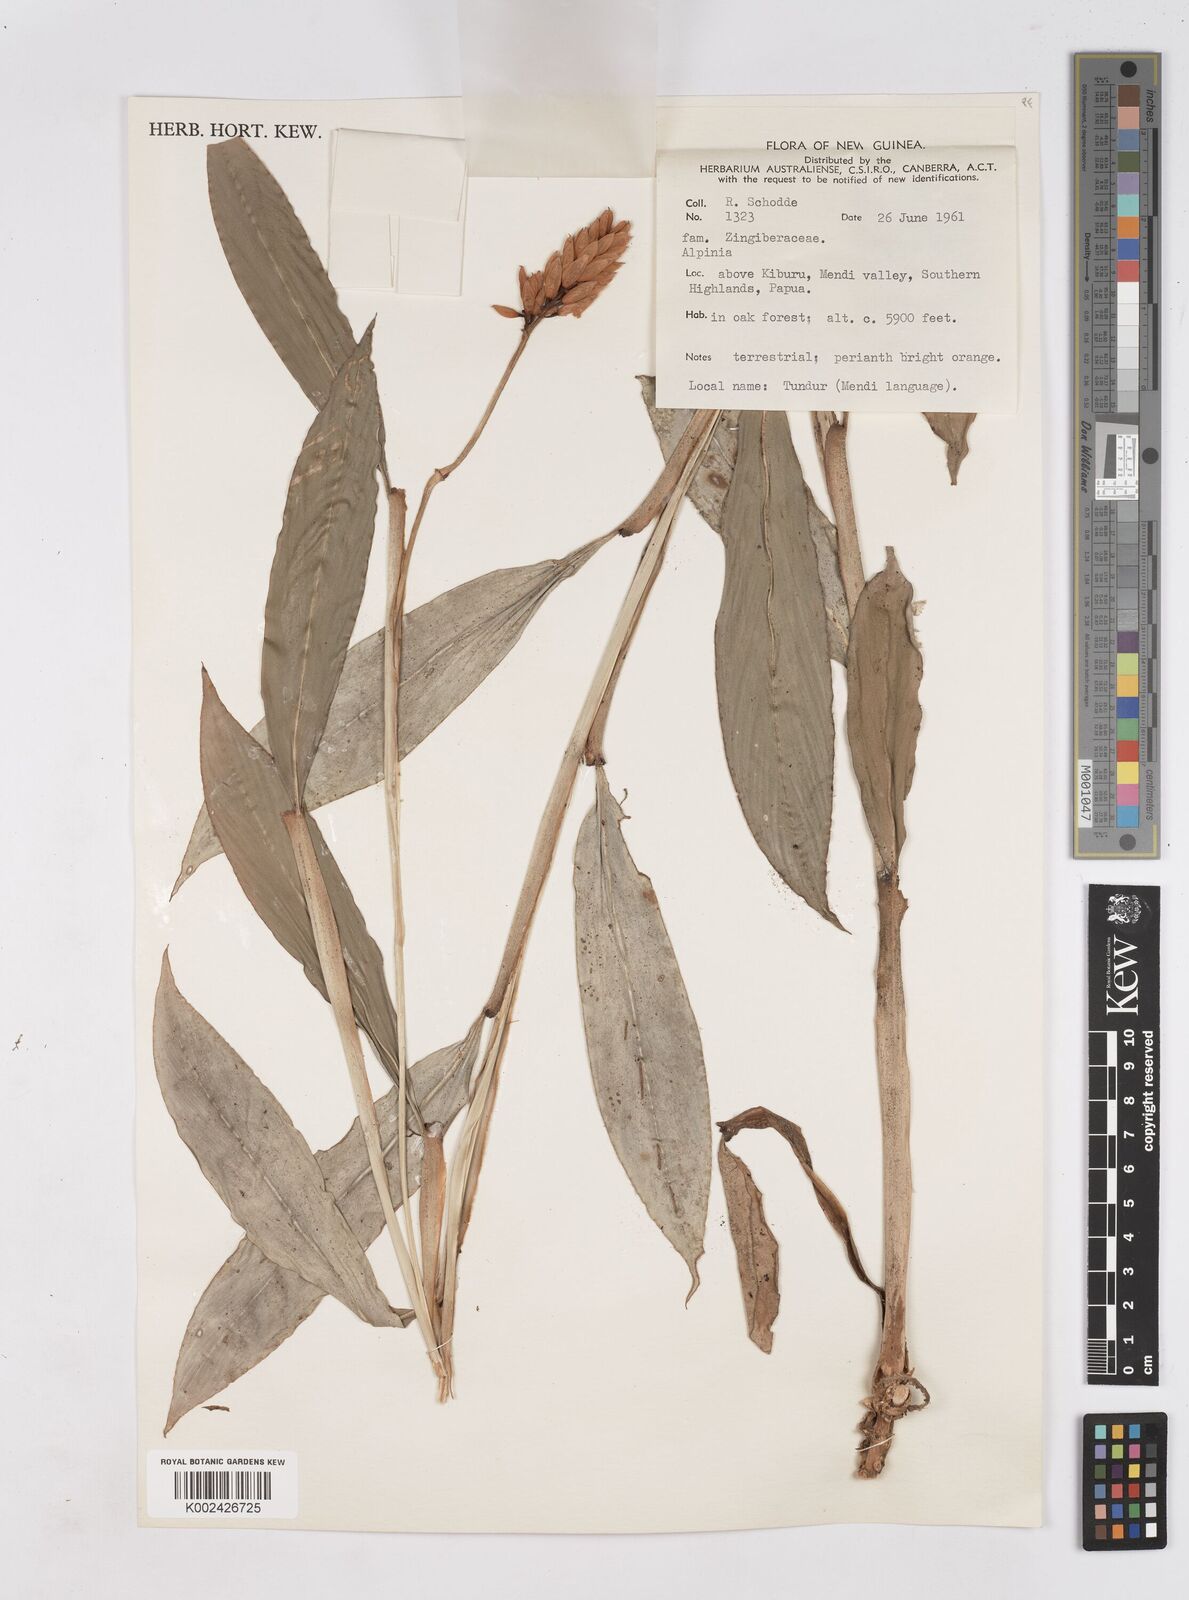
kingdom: Plantae
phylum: Tracheophyta
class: Liliopsida
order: Zingiberales
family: Zingiberaceae
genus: Riedelia
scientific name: Riedelia
